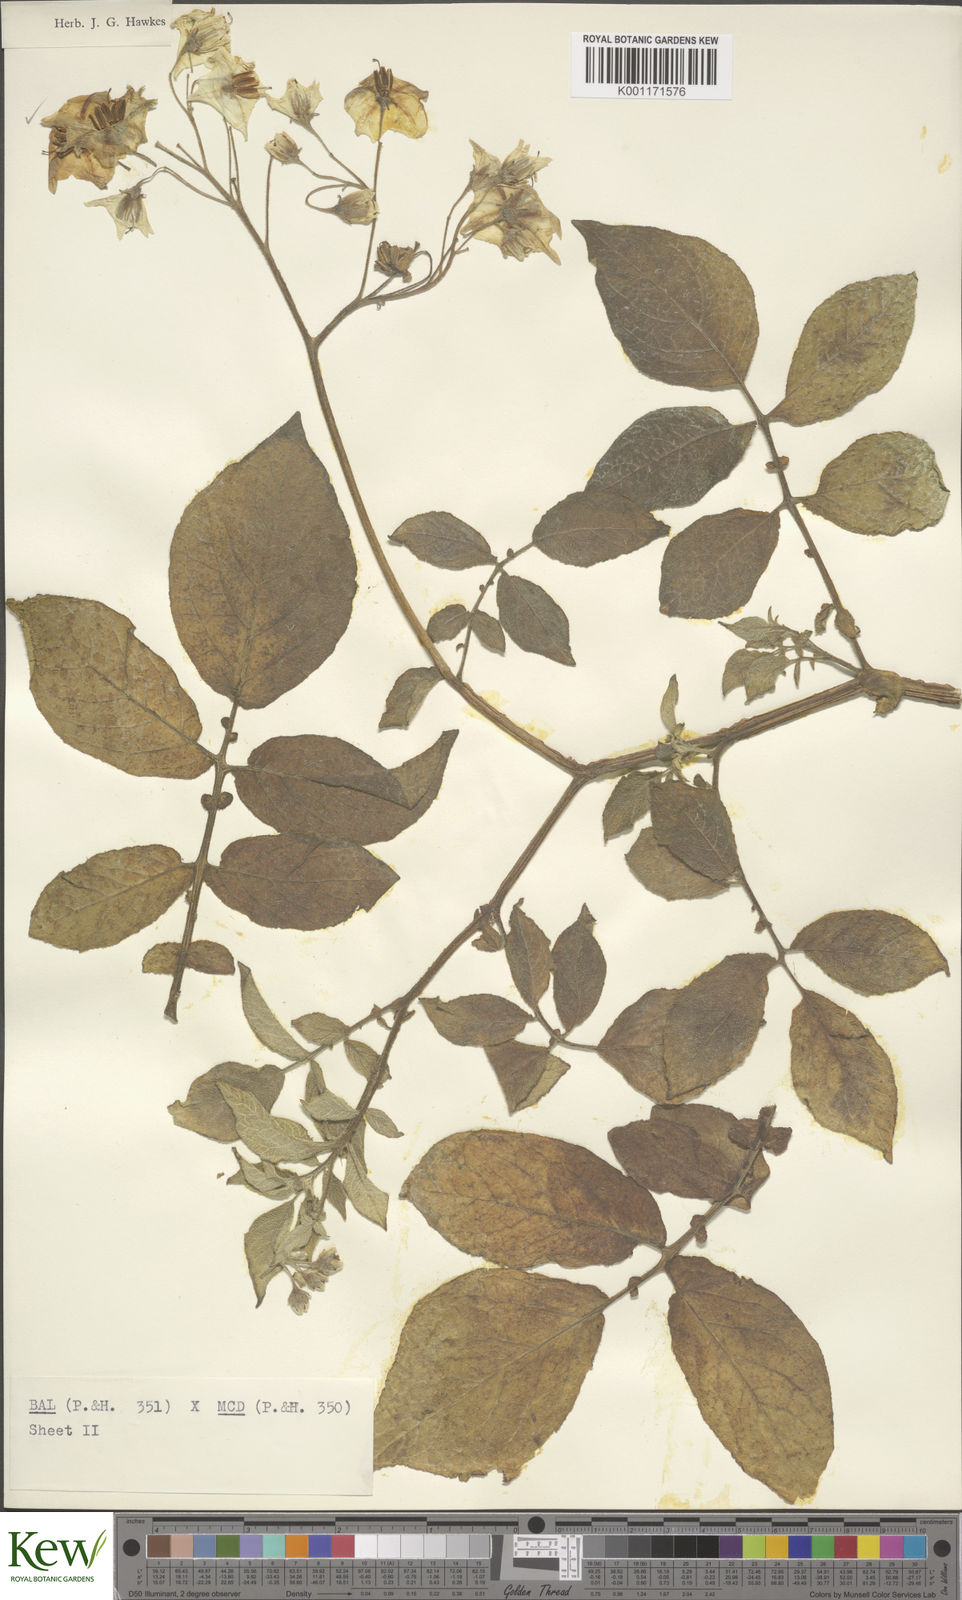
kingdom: Plantae
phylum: Tracheophyta
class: Magnoliopsida
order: Solanales
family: Solanaceae
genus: Solanum
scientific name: Solanum vernei
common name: Purple potato
